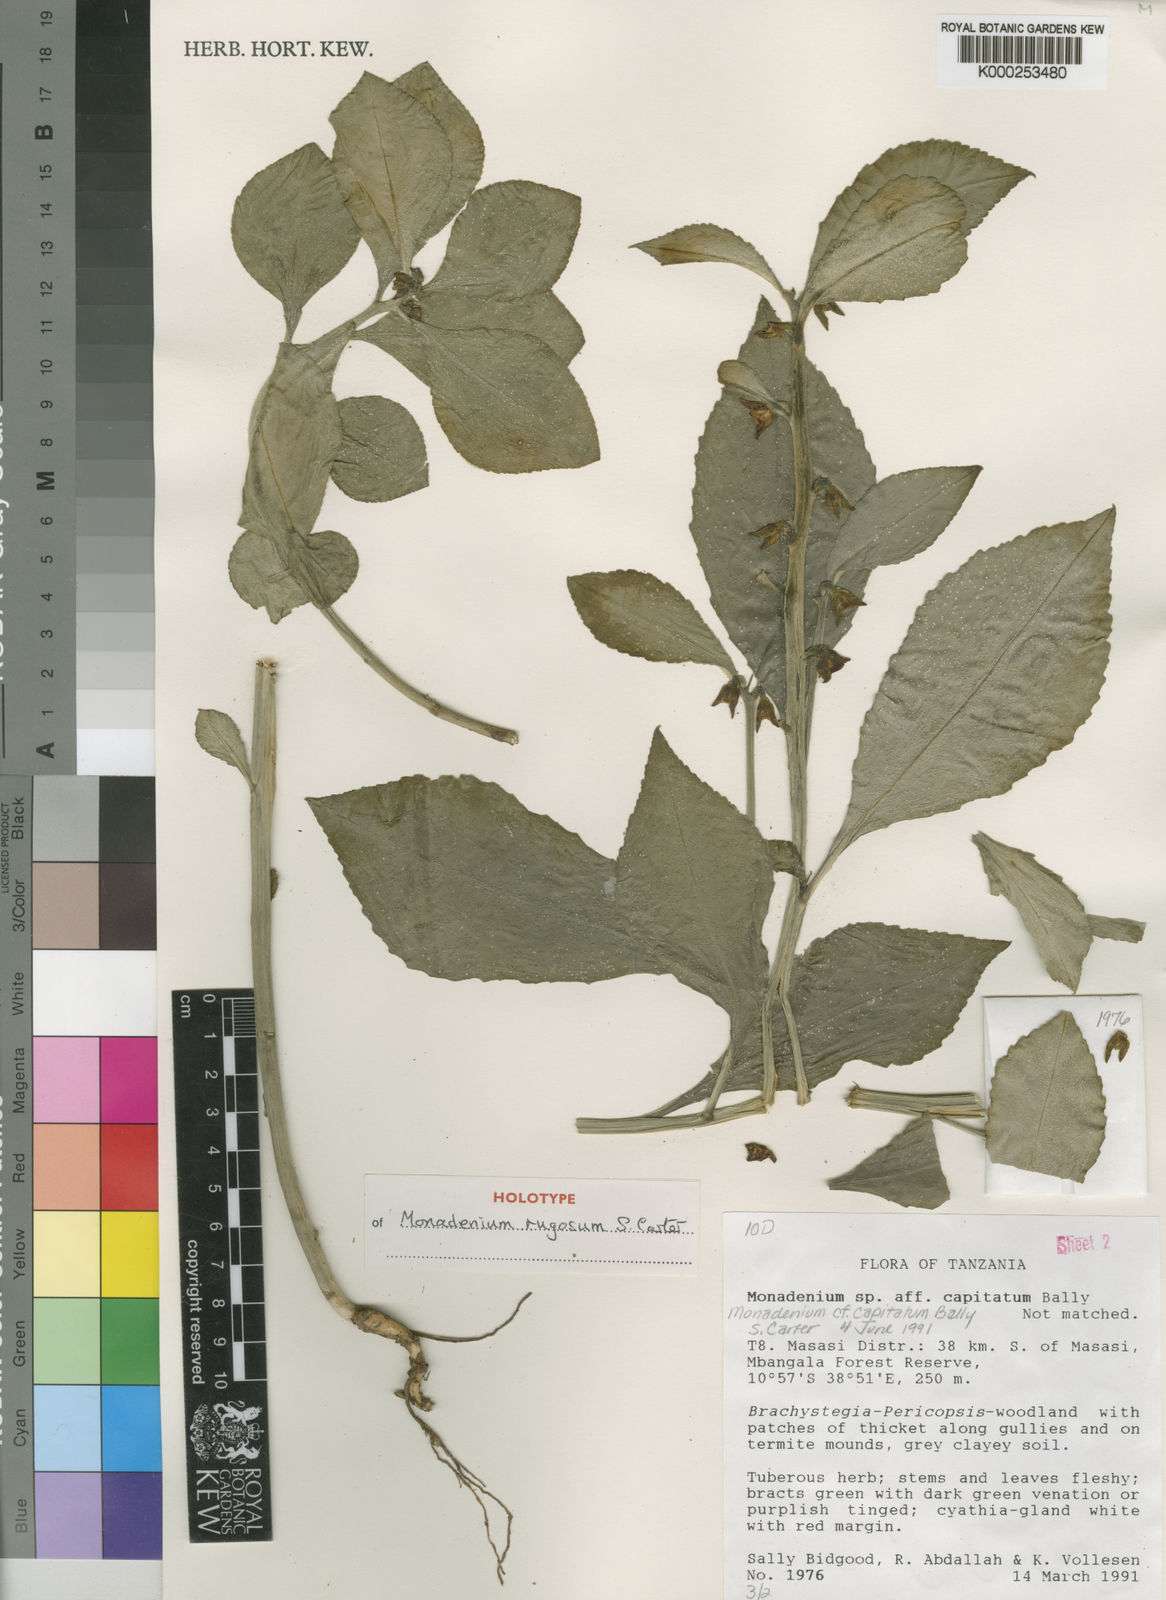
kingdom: Plantae
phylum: Tracheophyta
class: Magnoliopsida
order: Malpighiales
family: Euphorbiaceae
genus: Euphorbia
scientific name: Euphorbia neorugosa
